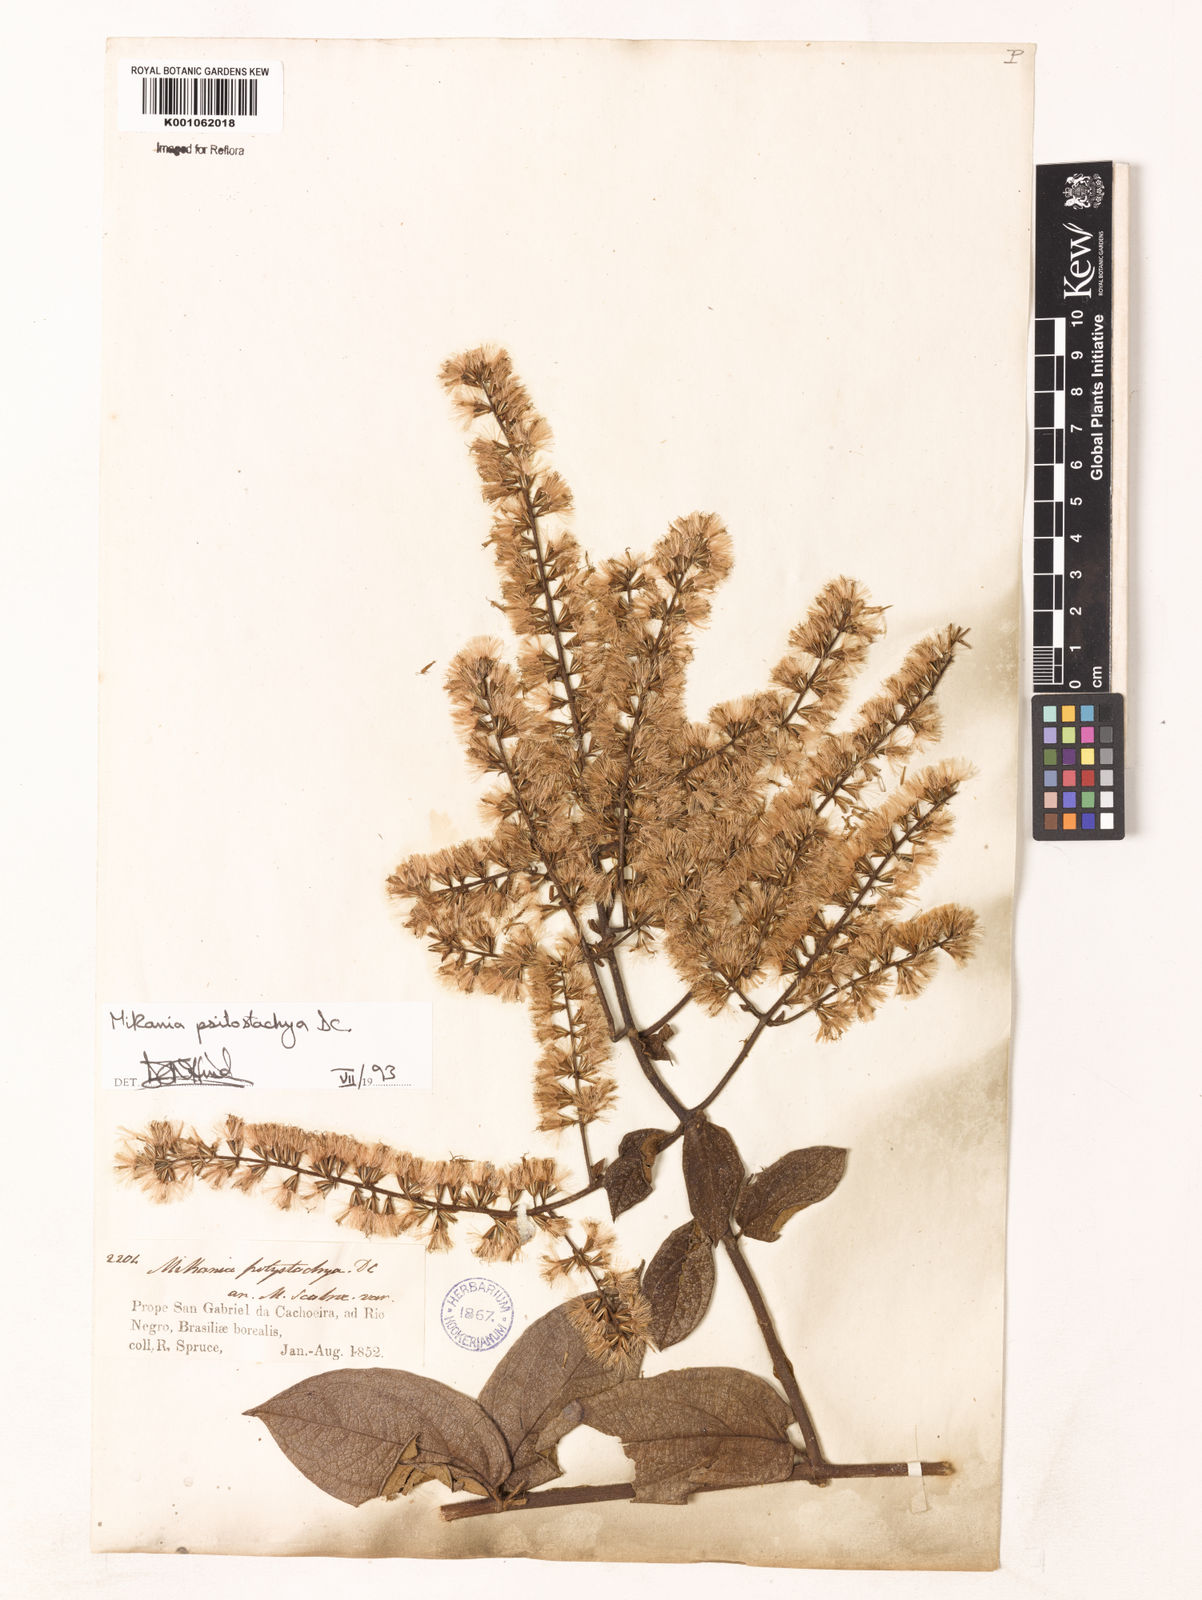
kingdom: Plantae
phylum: Tracheophyta
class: Magnoliopsida
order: Asterales
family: Asteraceae
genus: Mikania
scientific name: Mikania psilostachya
